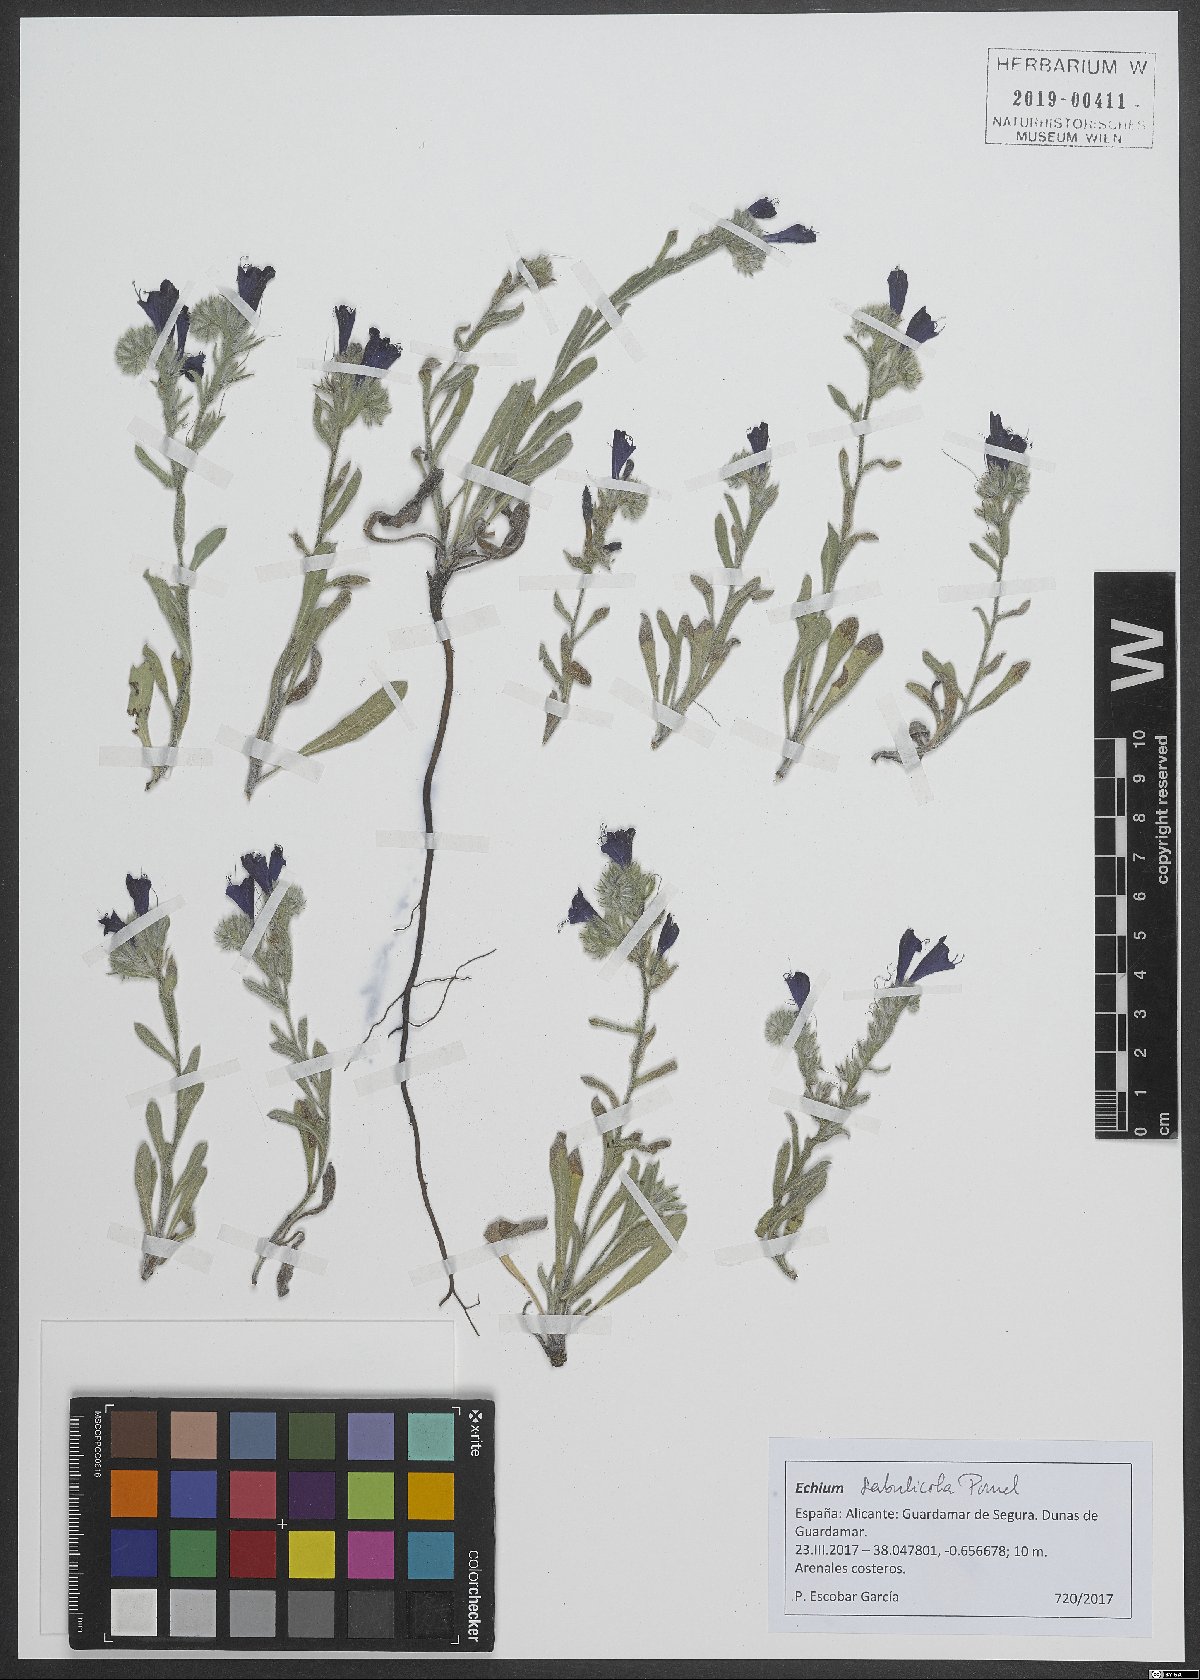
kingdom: Plantae
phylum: Tracheophyta
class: Magnoliopsida
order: Boraginales
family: Boraginaceae
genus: Echium
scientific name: Echium sabulicola
